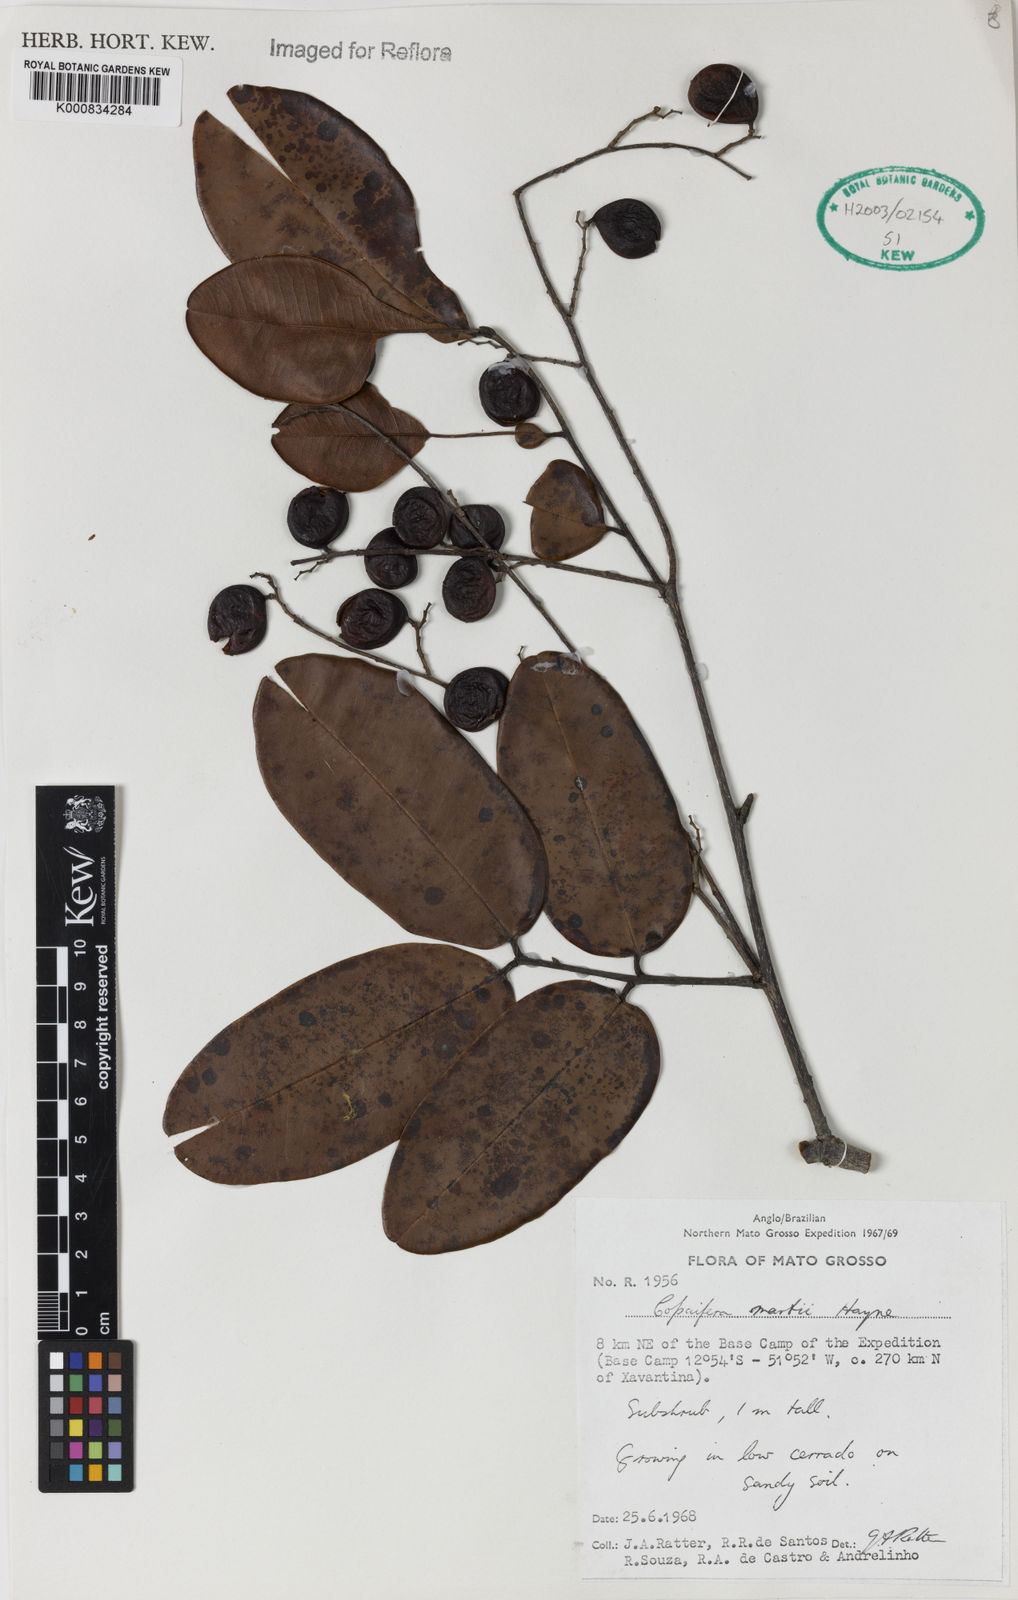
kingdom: Plantae
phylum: Tracheophyta
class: Magnoliopsida
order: Fabales
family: Fabaceae
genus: Copaifera
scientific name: Copaifera martii
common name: Copaiba
